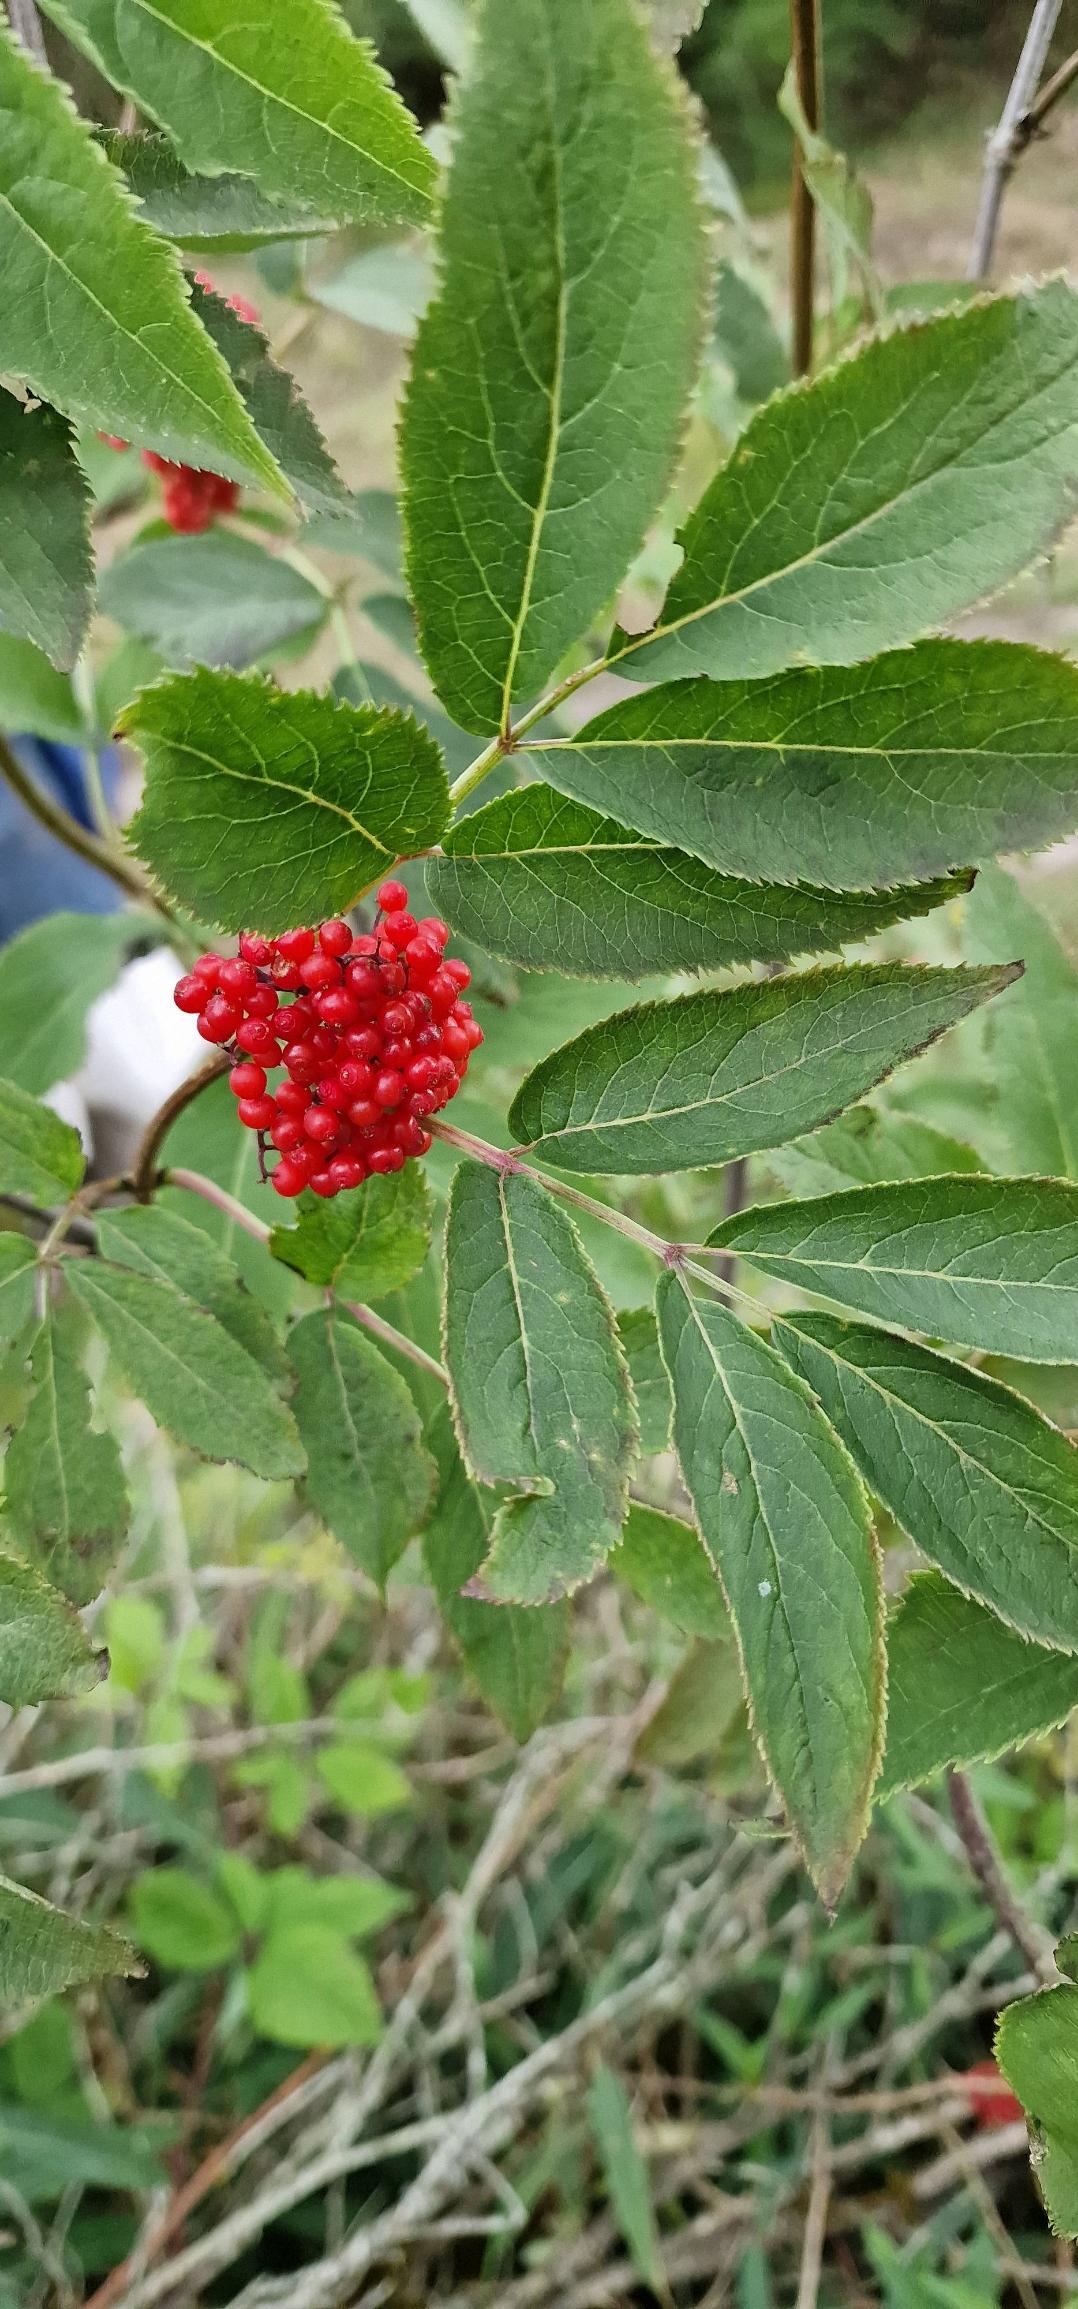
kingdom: Plantae
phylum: Tracheophyta
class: Magnoliopsida
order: Dipsacales
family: Viburnaceae
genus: Sambucus
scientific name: Sambucus racemosa
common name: Drue-hyld
